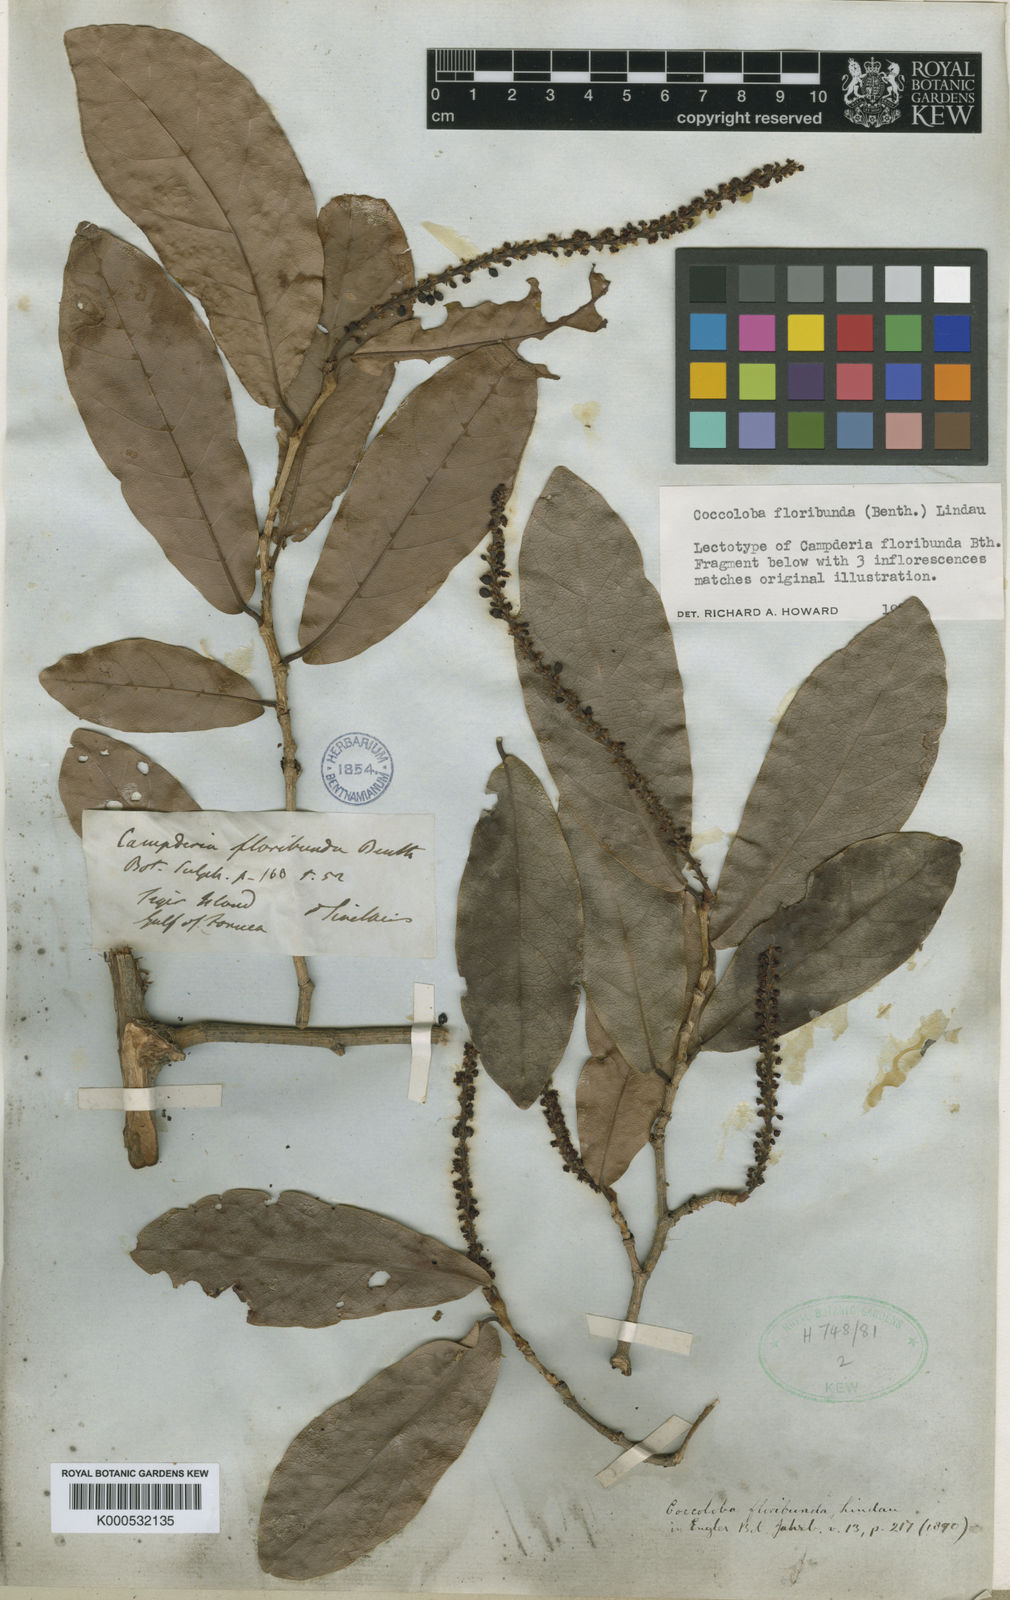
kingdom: Plantae
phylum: Tracheophyta
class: Magnoliopsida
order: Caryophyllales
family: Polygonaceae
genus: Coccoloba
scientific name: Coccoloba floribunda
